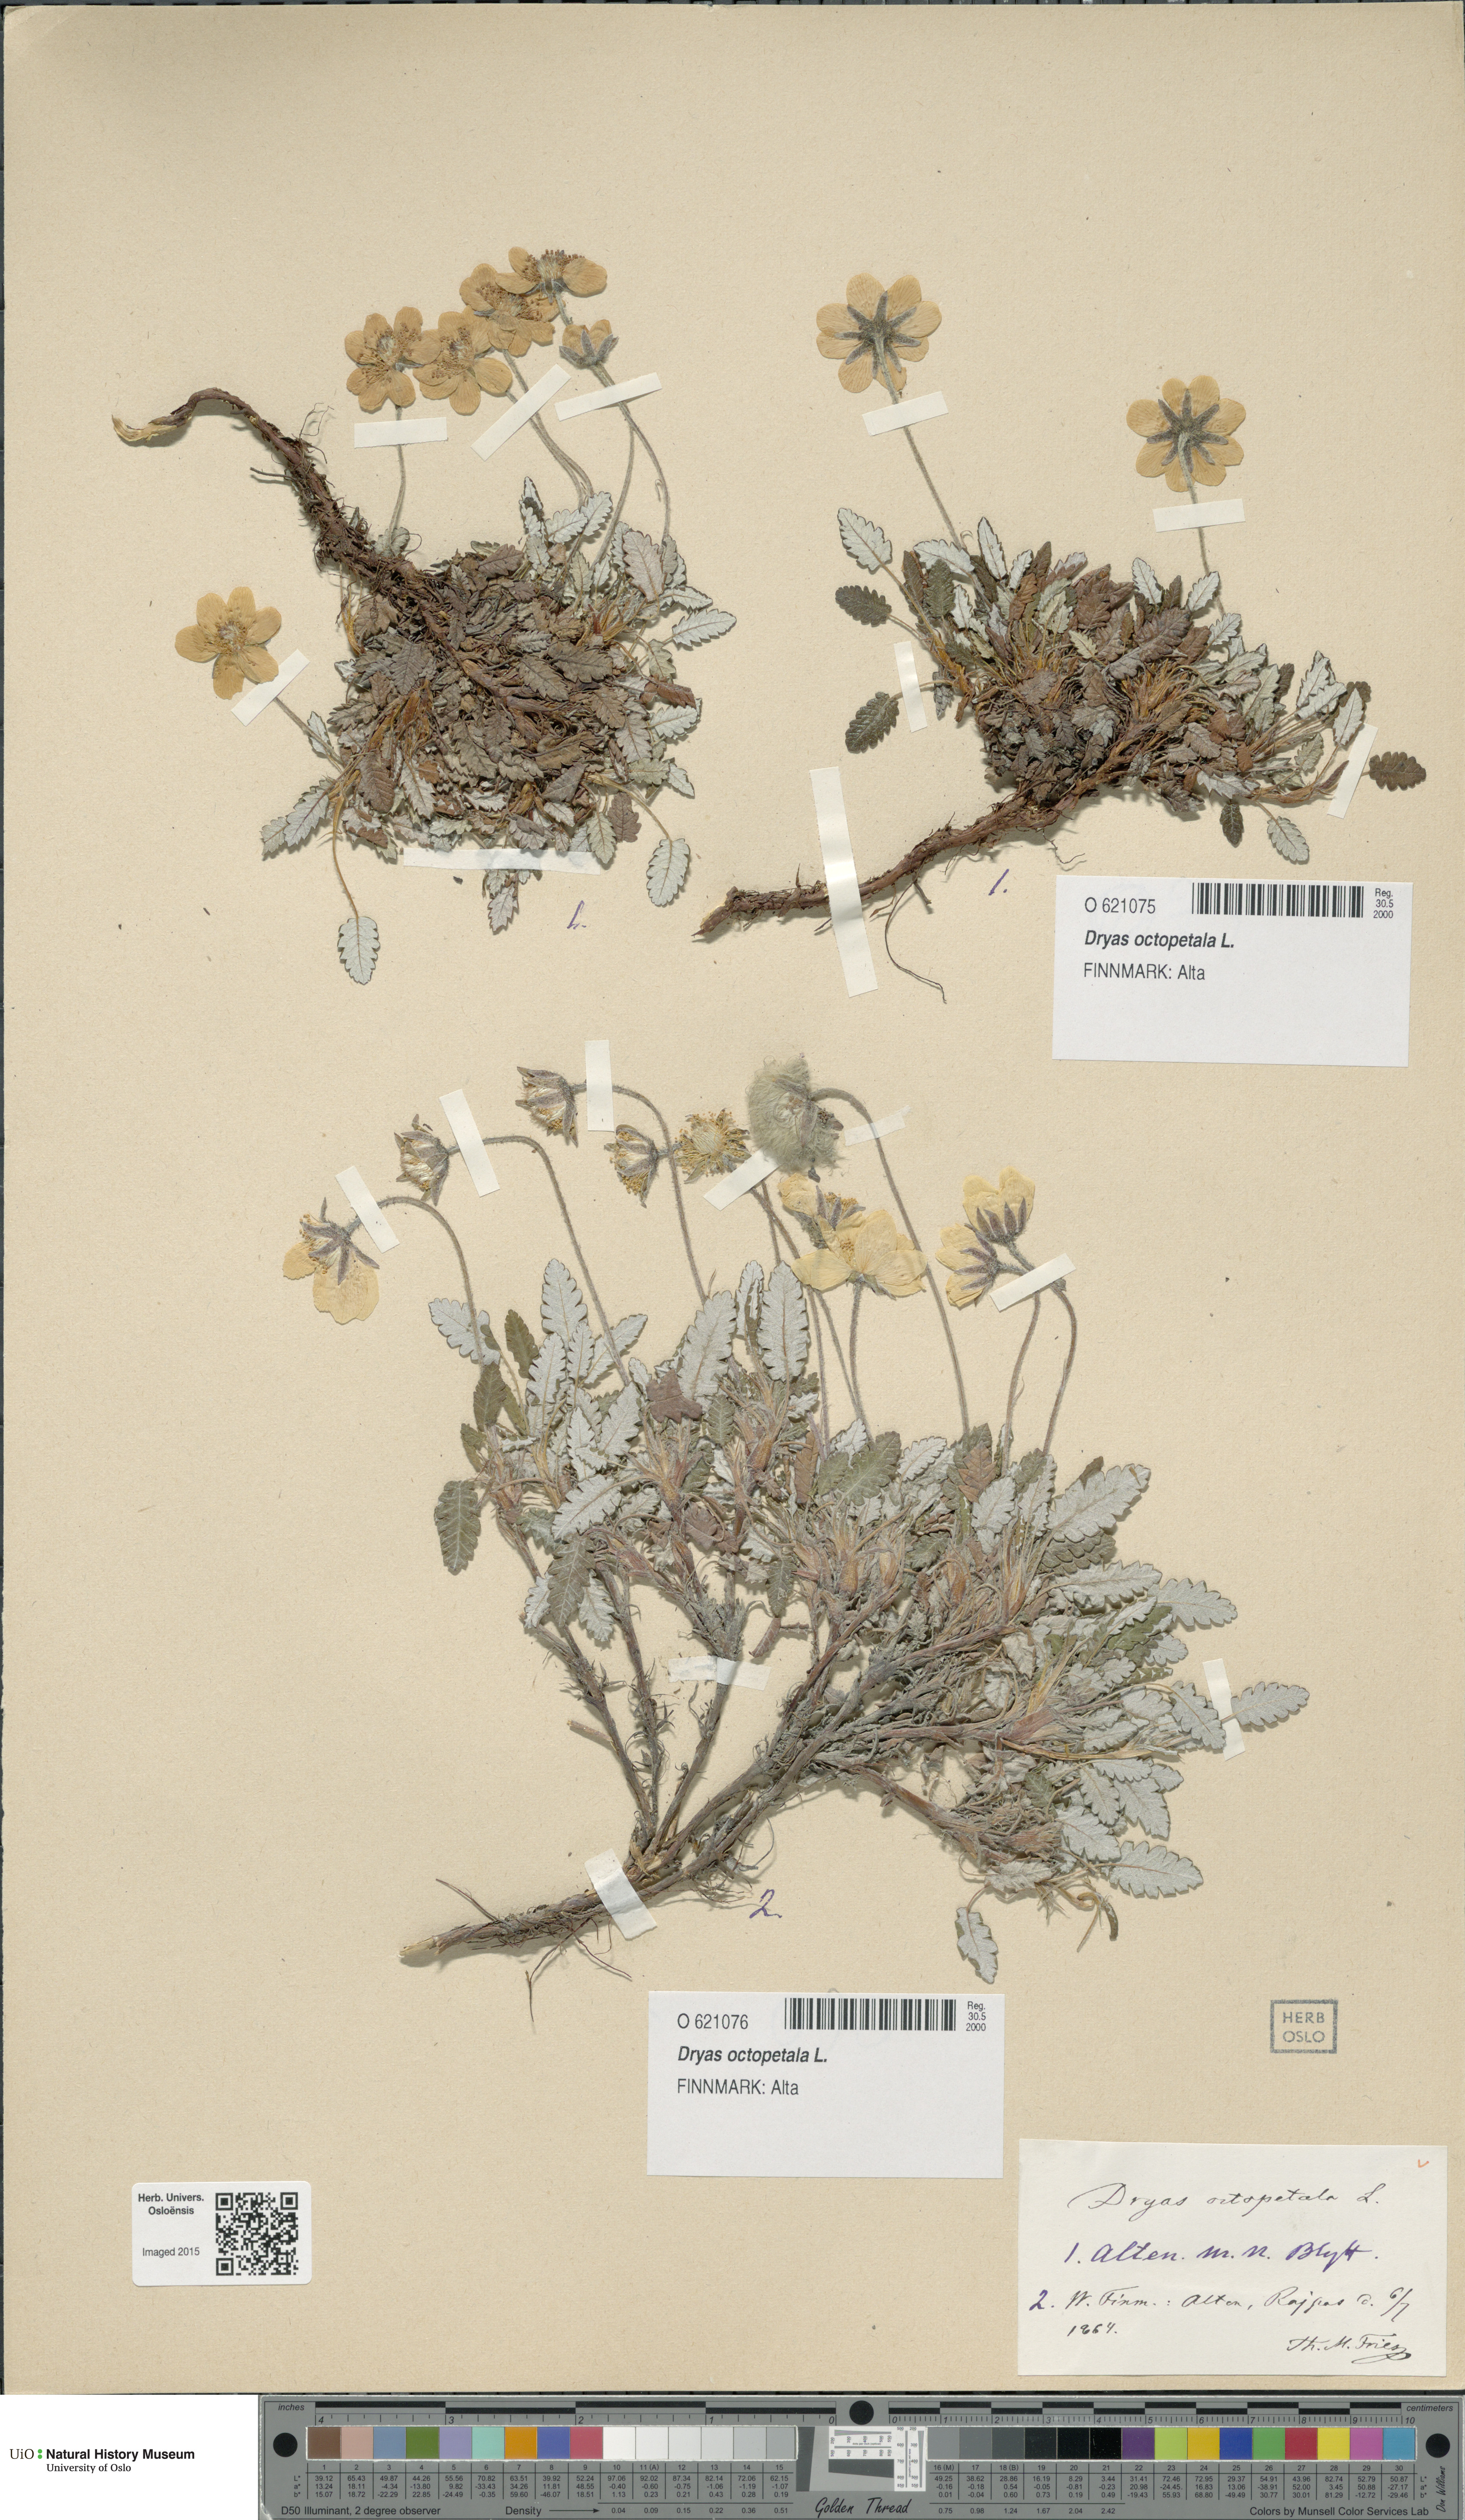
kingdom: Plantae
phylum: Tracheophyta
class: Magnoliopsida
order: Rosales
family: Rosaceae
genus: Dryas
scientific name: Dryas octopetala
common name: Eight-petal mountain-avens
